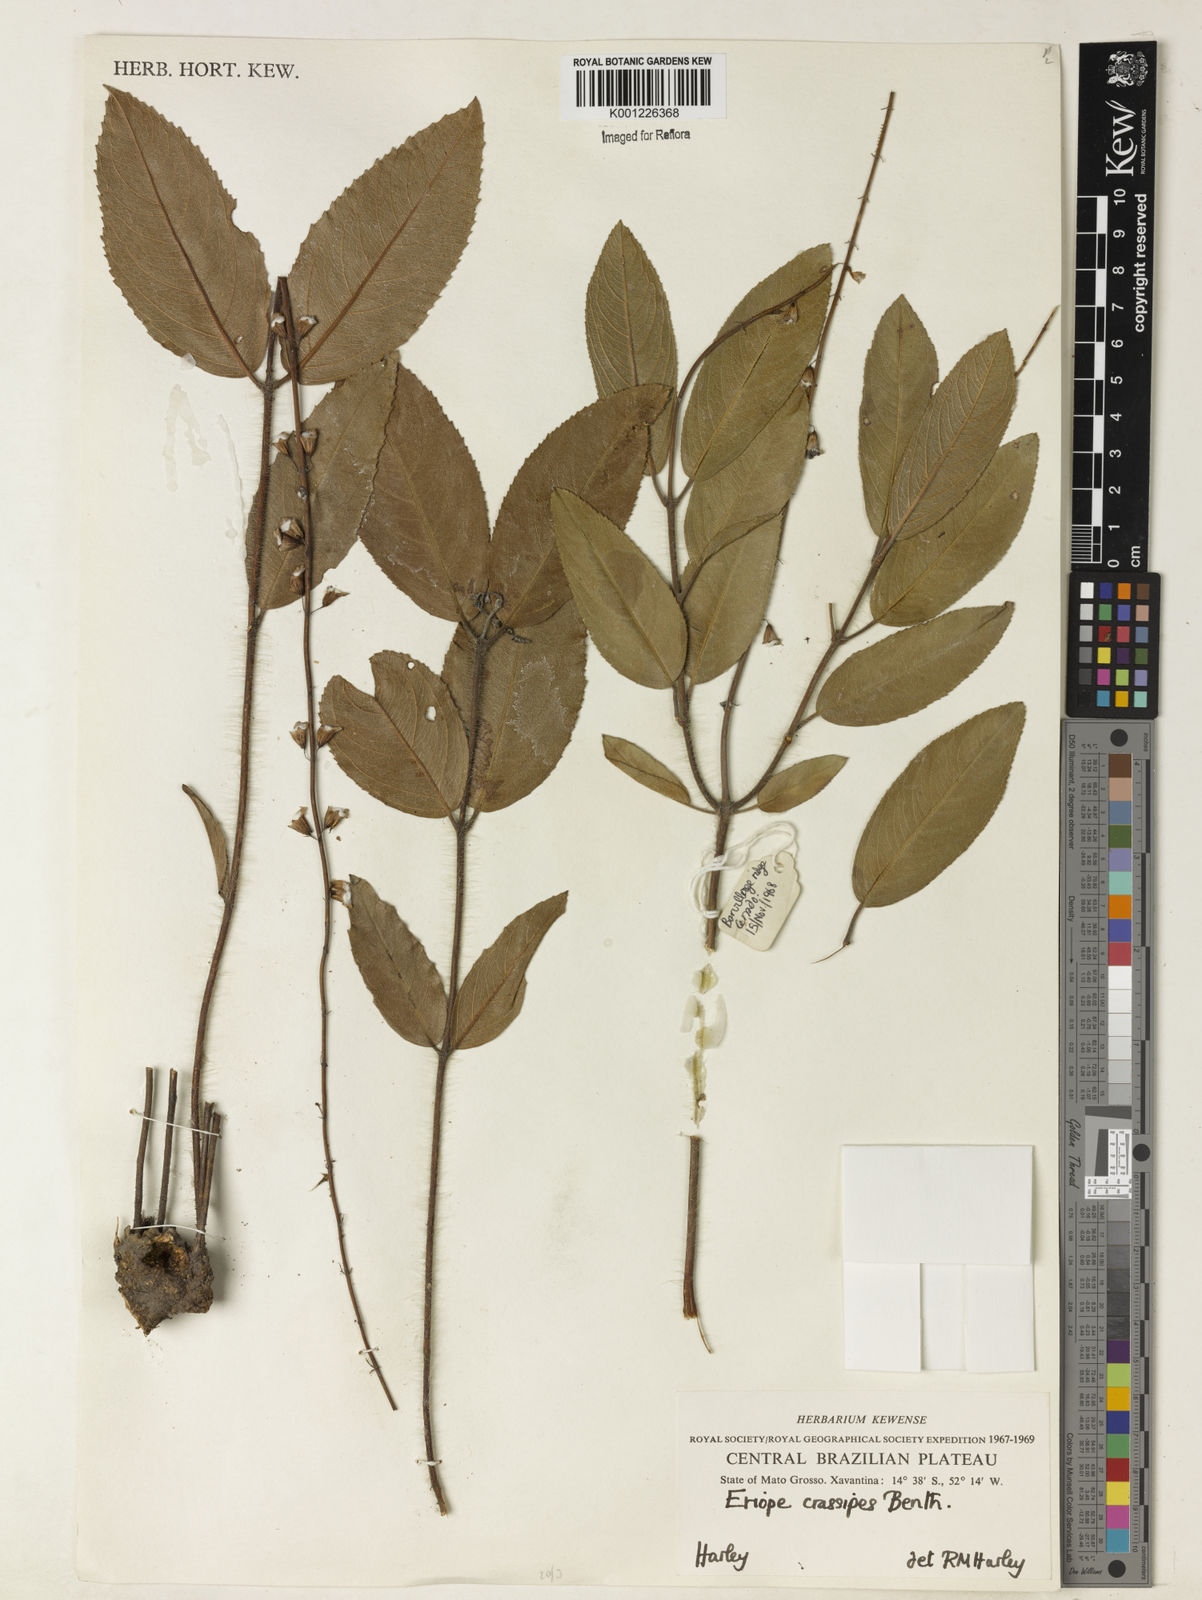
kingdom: Plantae
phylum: Tracheophyta
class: Magnoliopsida
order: Lamiales
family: Lamiaceae
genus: Eriope
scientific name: Eriope crassipes
